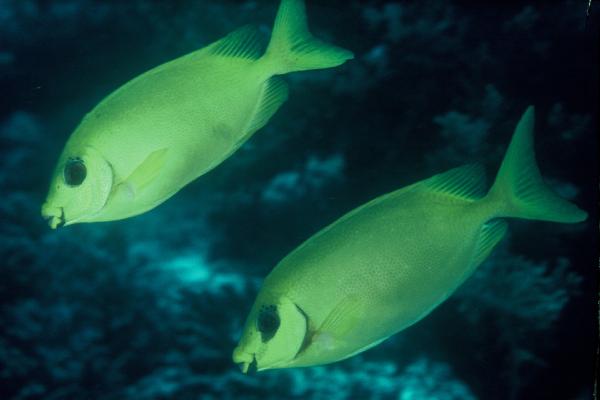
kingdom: Animalia
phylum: Chordata
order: Perciformes
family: Siganidae
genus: Siganus
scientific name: Siganus puelloides
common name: Blackeye rabbitfish
